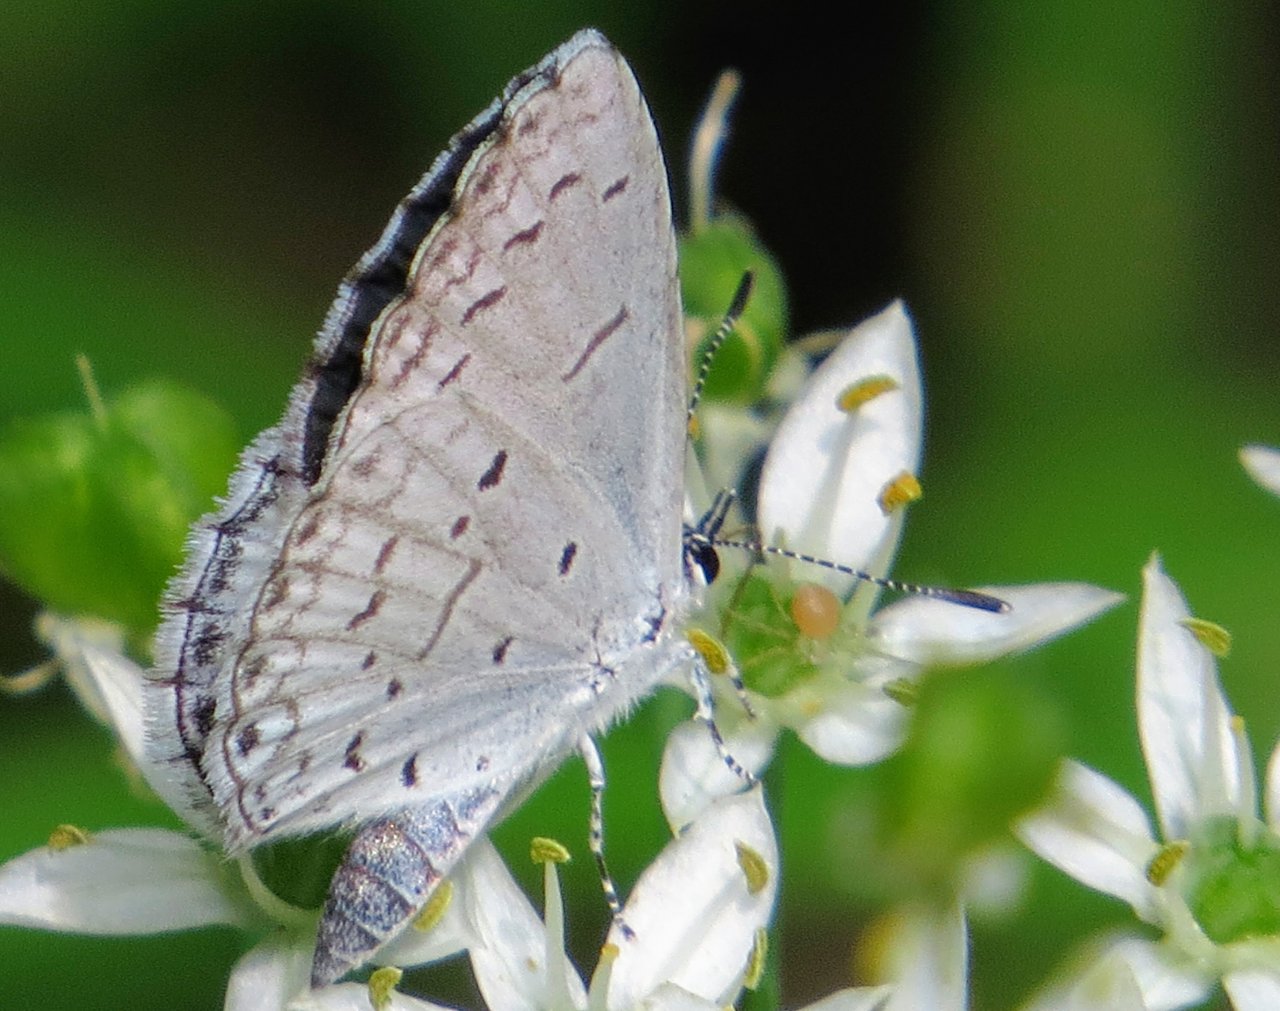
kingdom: Animalia
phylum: Arthropoda
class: Insecta
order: Lepidoptera
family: Lycaenidae
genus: Cyaniris
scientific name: Cyaniris neglecta
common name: Summer Azure
